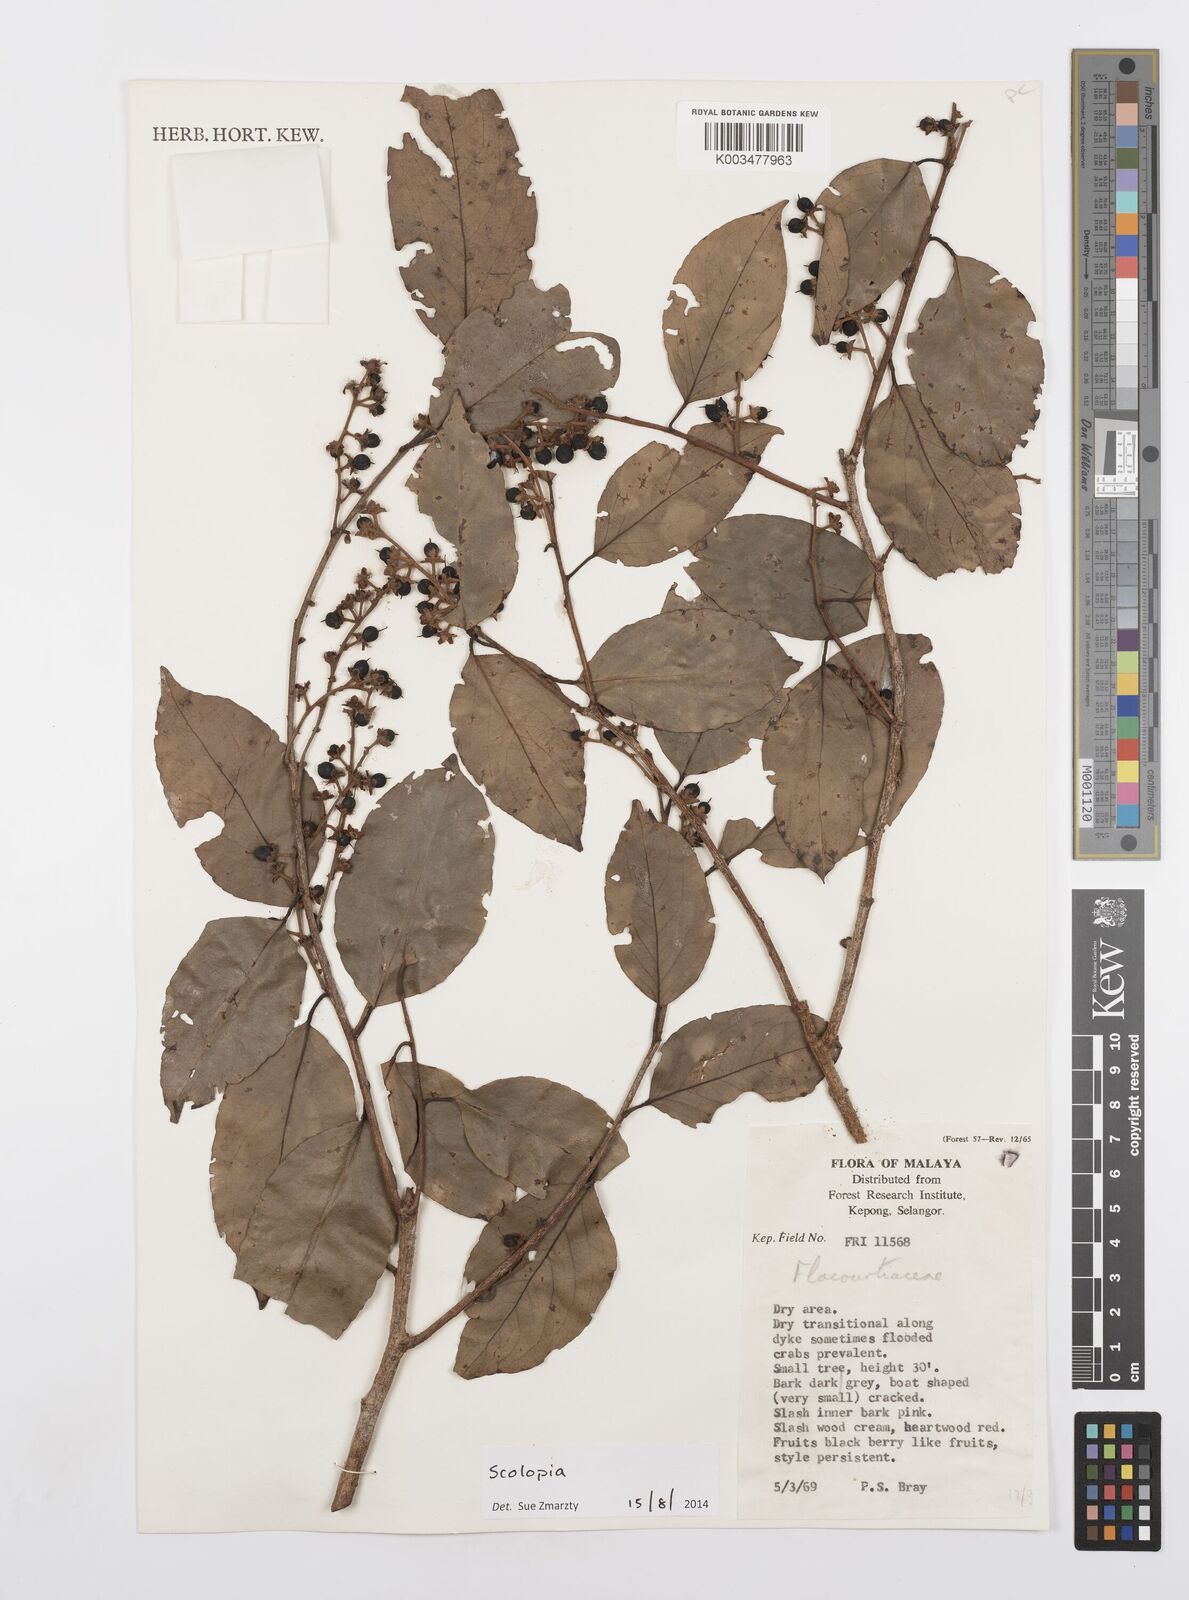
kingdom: Plantae
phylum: Tracheophyta
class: Magnoliopsida
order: Malpighiales
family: Salicaceae
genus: Scolopia
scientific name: Scolopia
